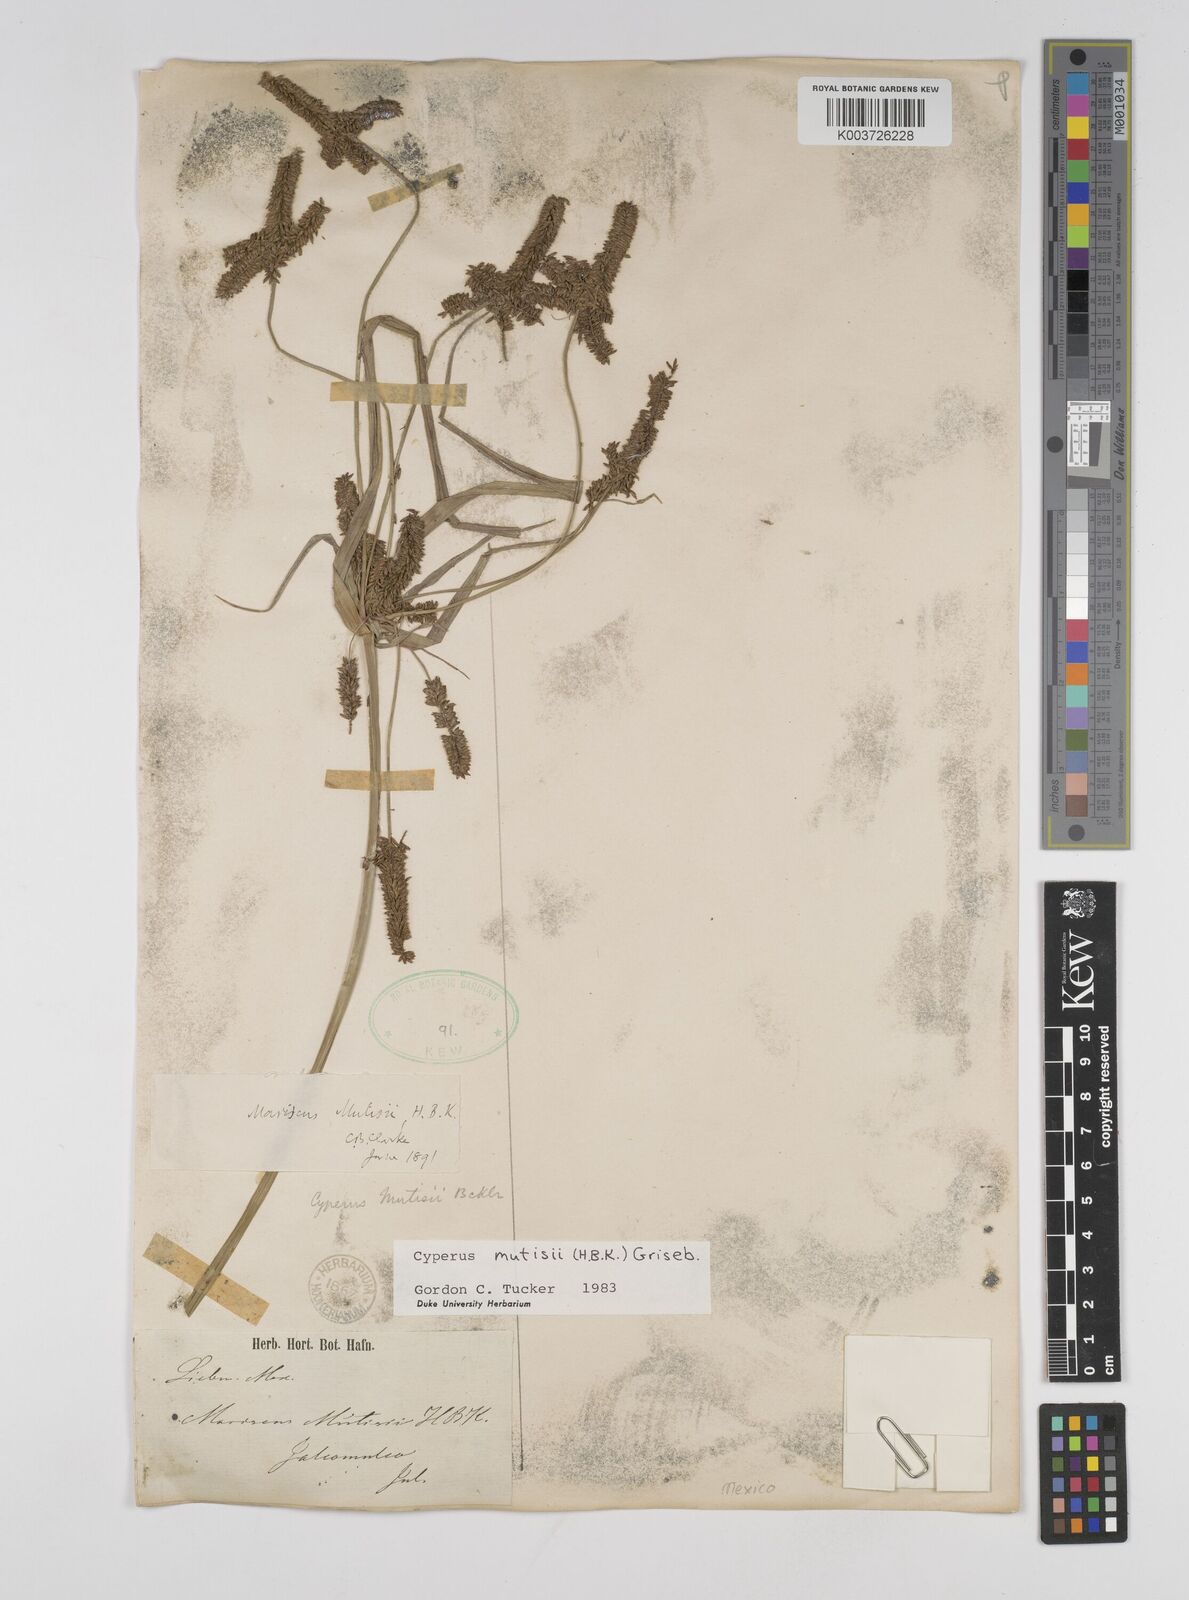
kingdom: Plantae
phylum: Tracheophyta
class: Liliopsida
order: Poales
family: Cyperaceae
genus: Cyperus
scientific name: Cyperus mutisii
